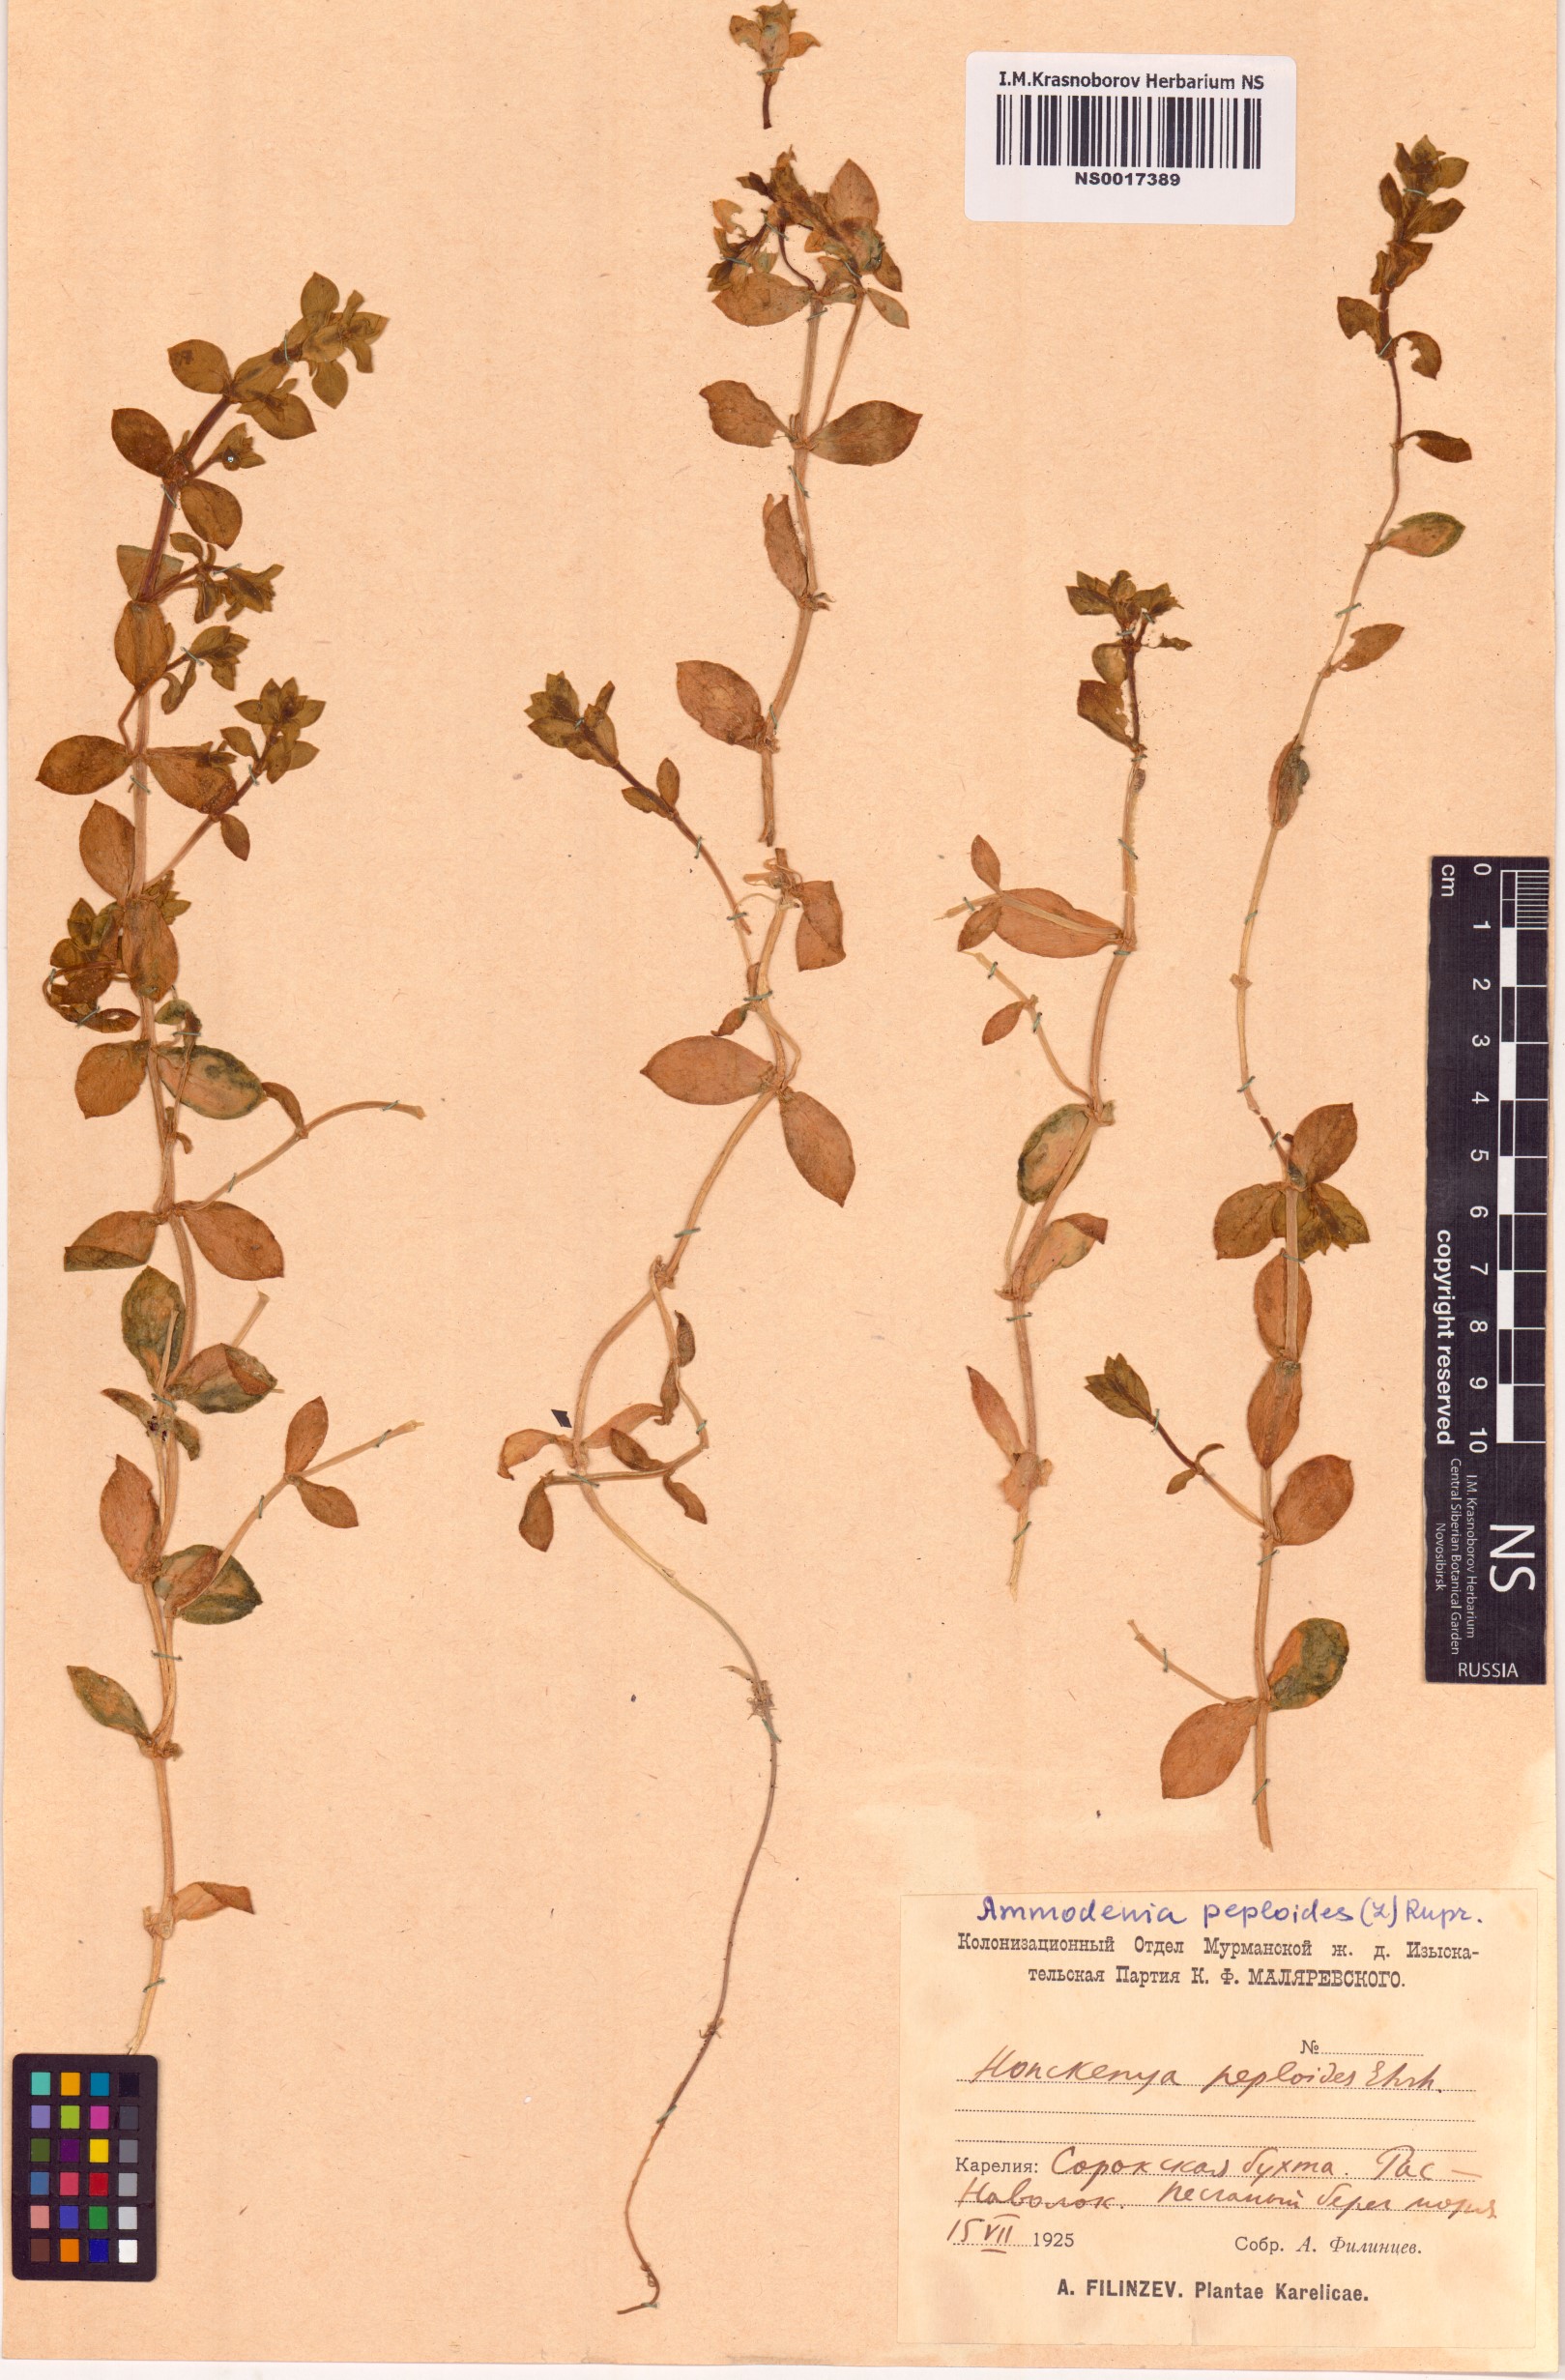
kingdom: Plantae
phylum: Tracheophyta
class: Magnoliopsida
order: Caryophyllales
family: Caryophyllaceae
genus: Honckenya
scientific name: Honckenya peploides
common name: Sea sandwort
